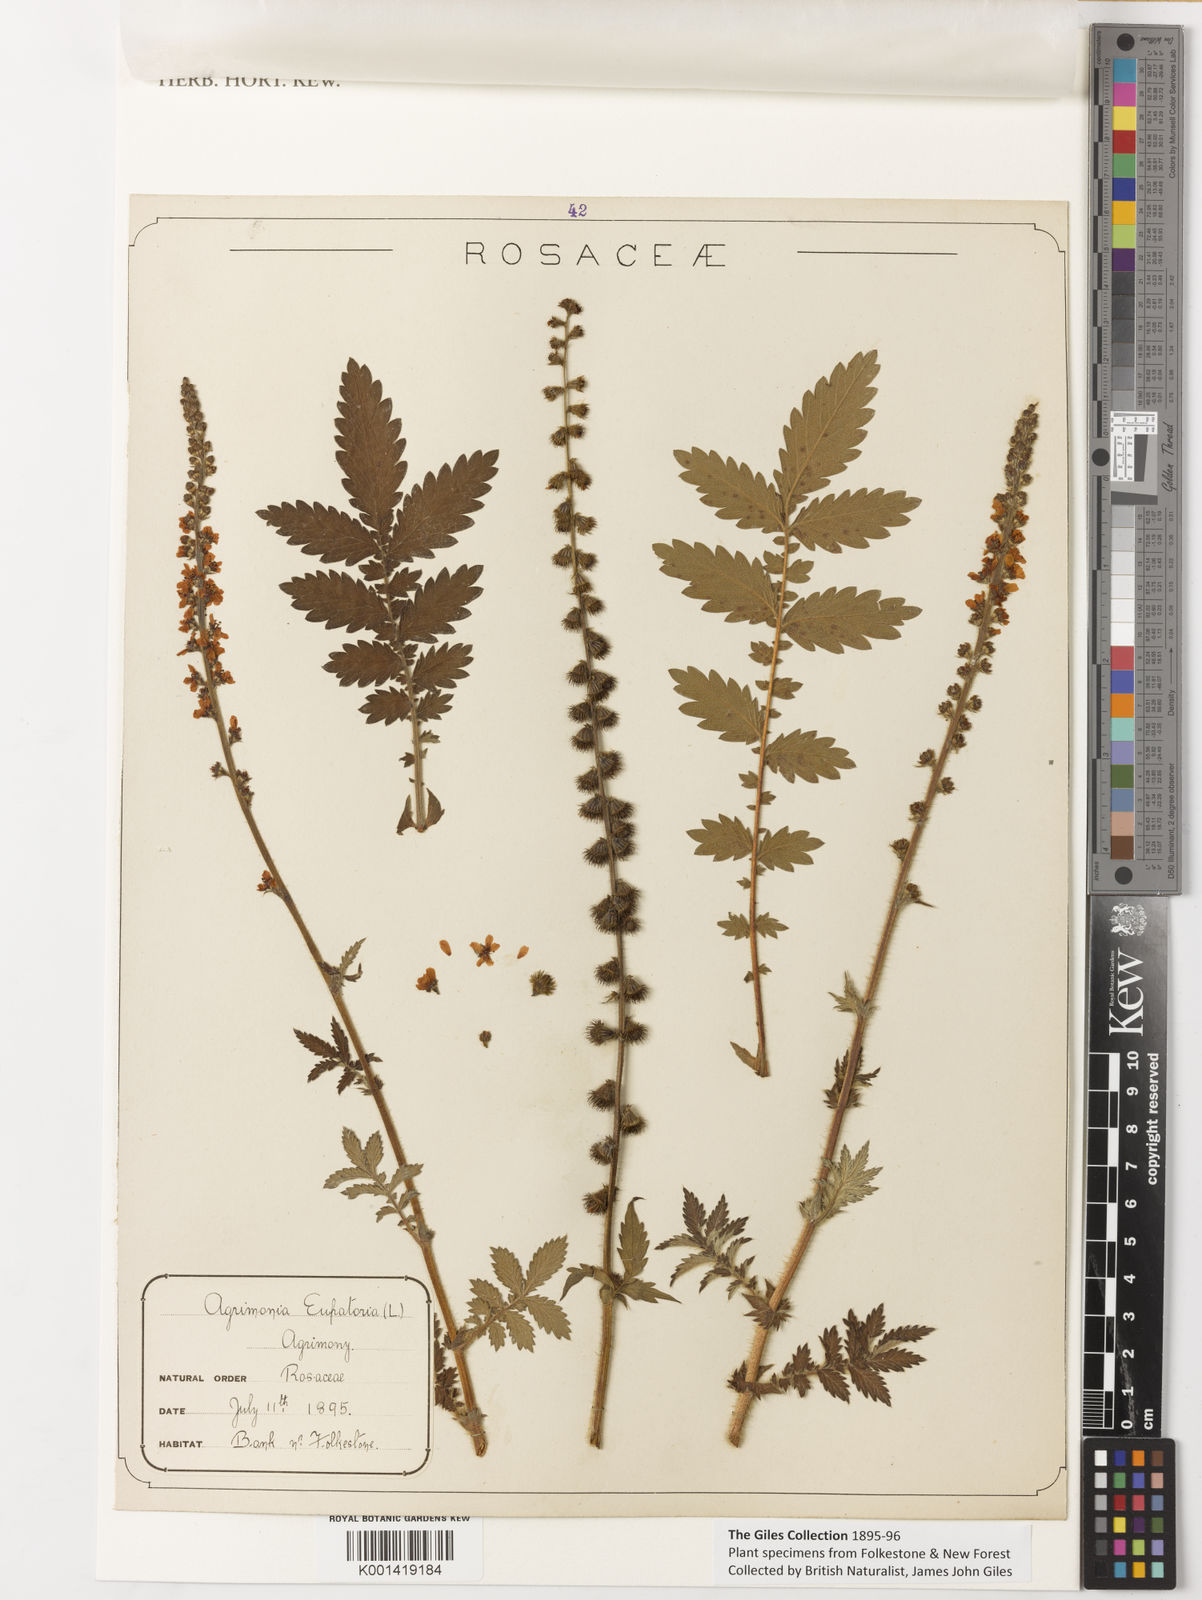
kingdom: Plantae
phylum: Tracheophyta
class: Magnoliopsida
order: Rosales
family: Rosaceae
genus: Agrimonia
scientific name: Agrimonia eupatoria
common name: Agrimony
